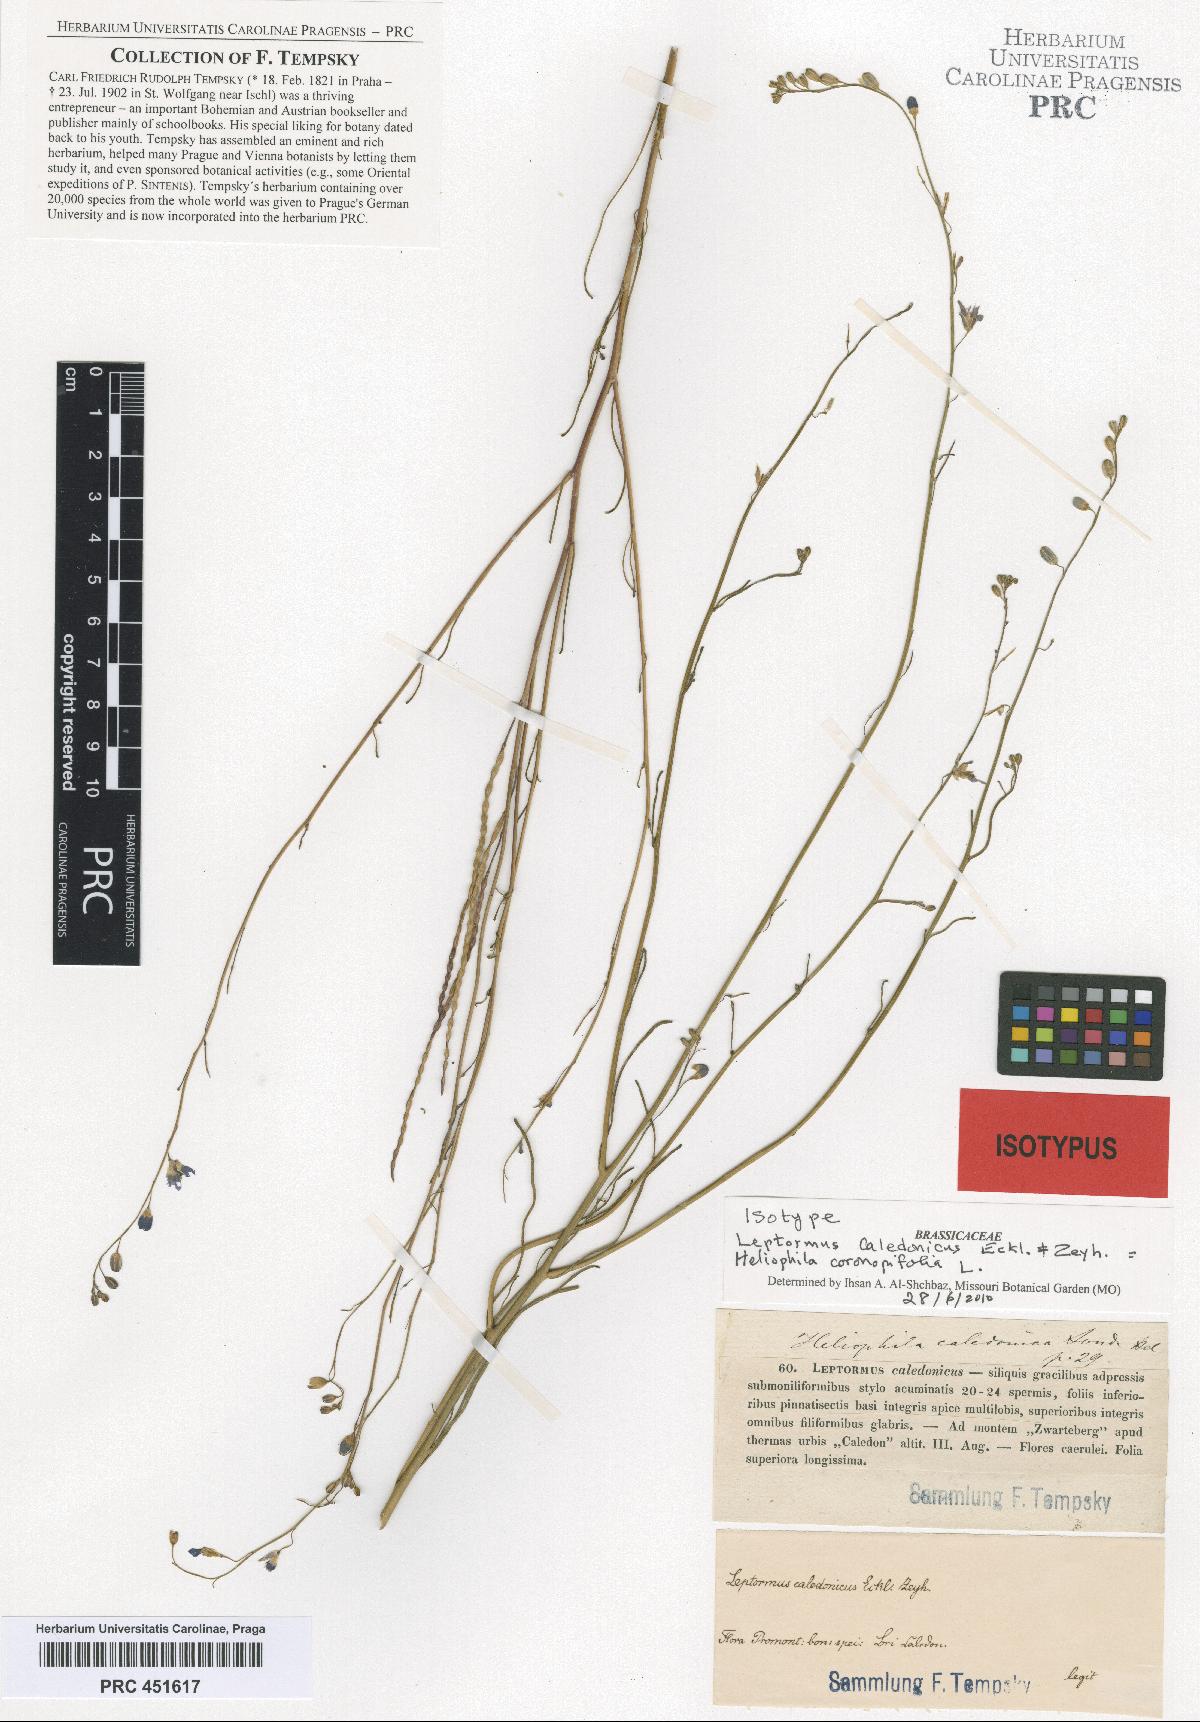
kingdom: Plantae
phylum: Tracheophyta
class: Magnoliopsida
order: Brassicales
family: Brassicaceae
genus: Heliophila
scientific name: Heliophila coronopifolia
